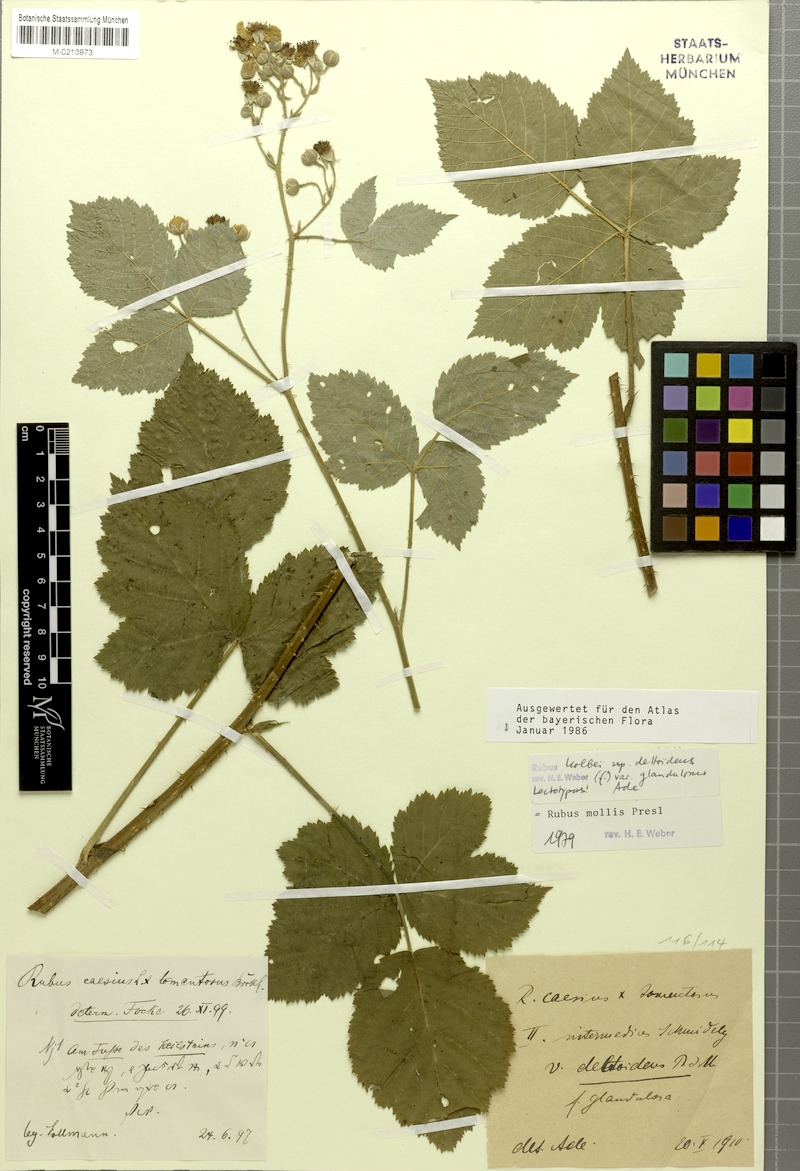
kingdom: Plantae
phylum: Tracheophyta
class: Magnoliopsida
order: Rosales
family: Rosaceae
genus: Rubus
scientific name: Rubus mollis
